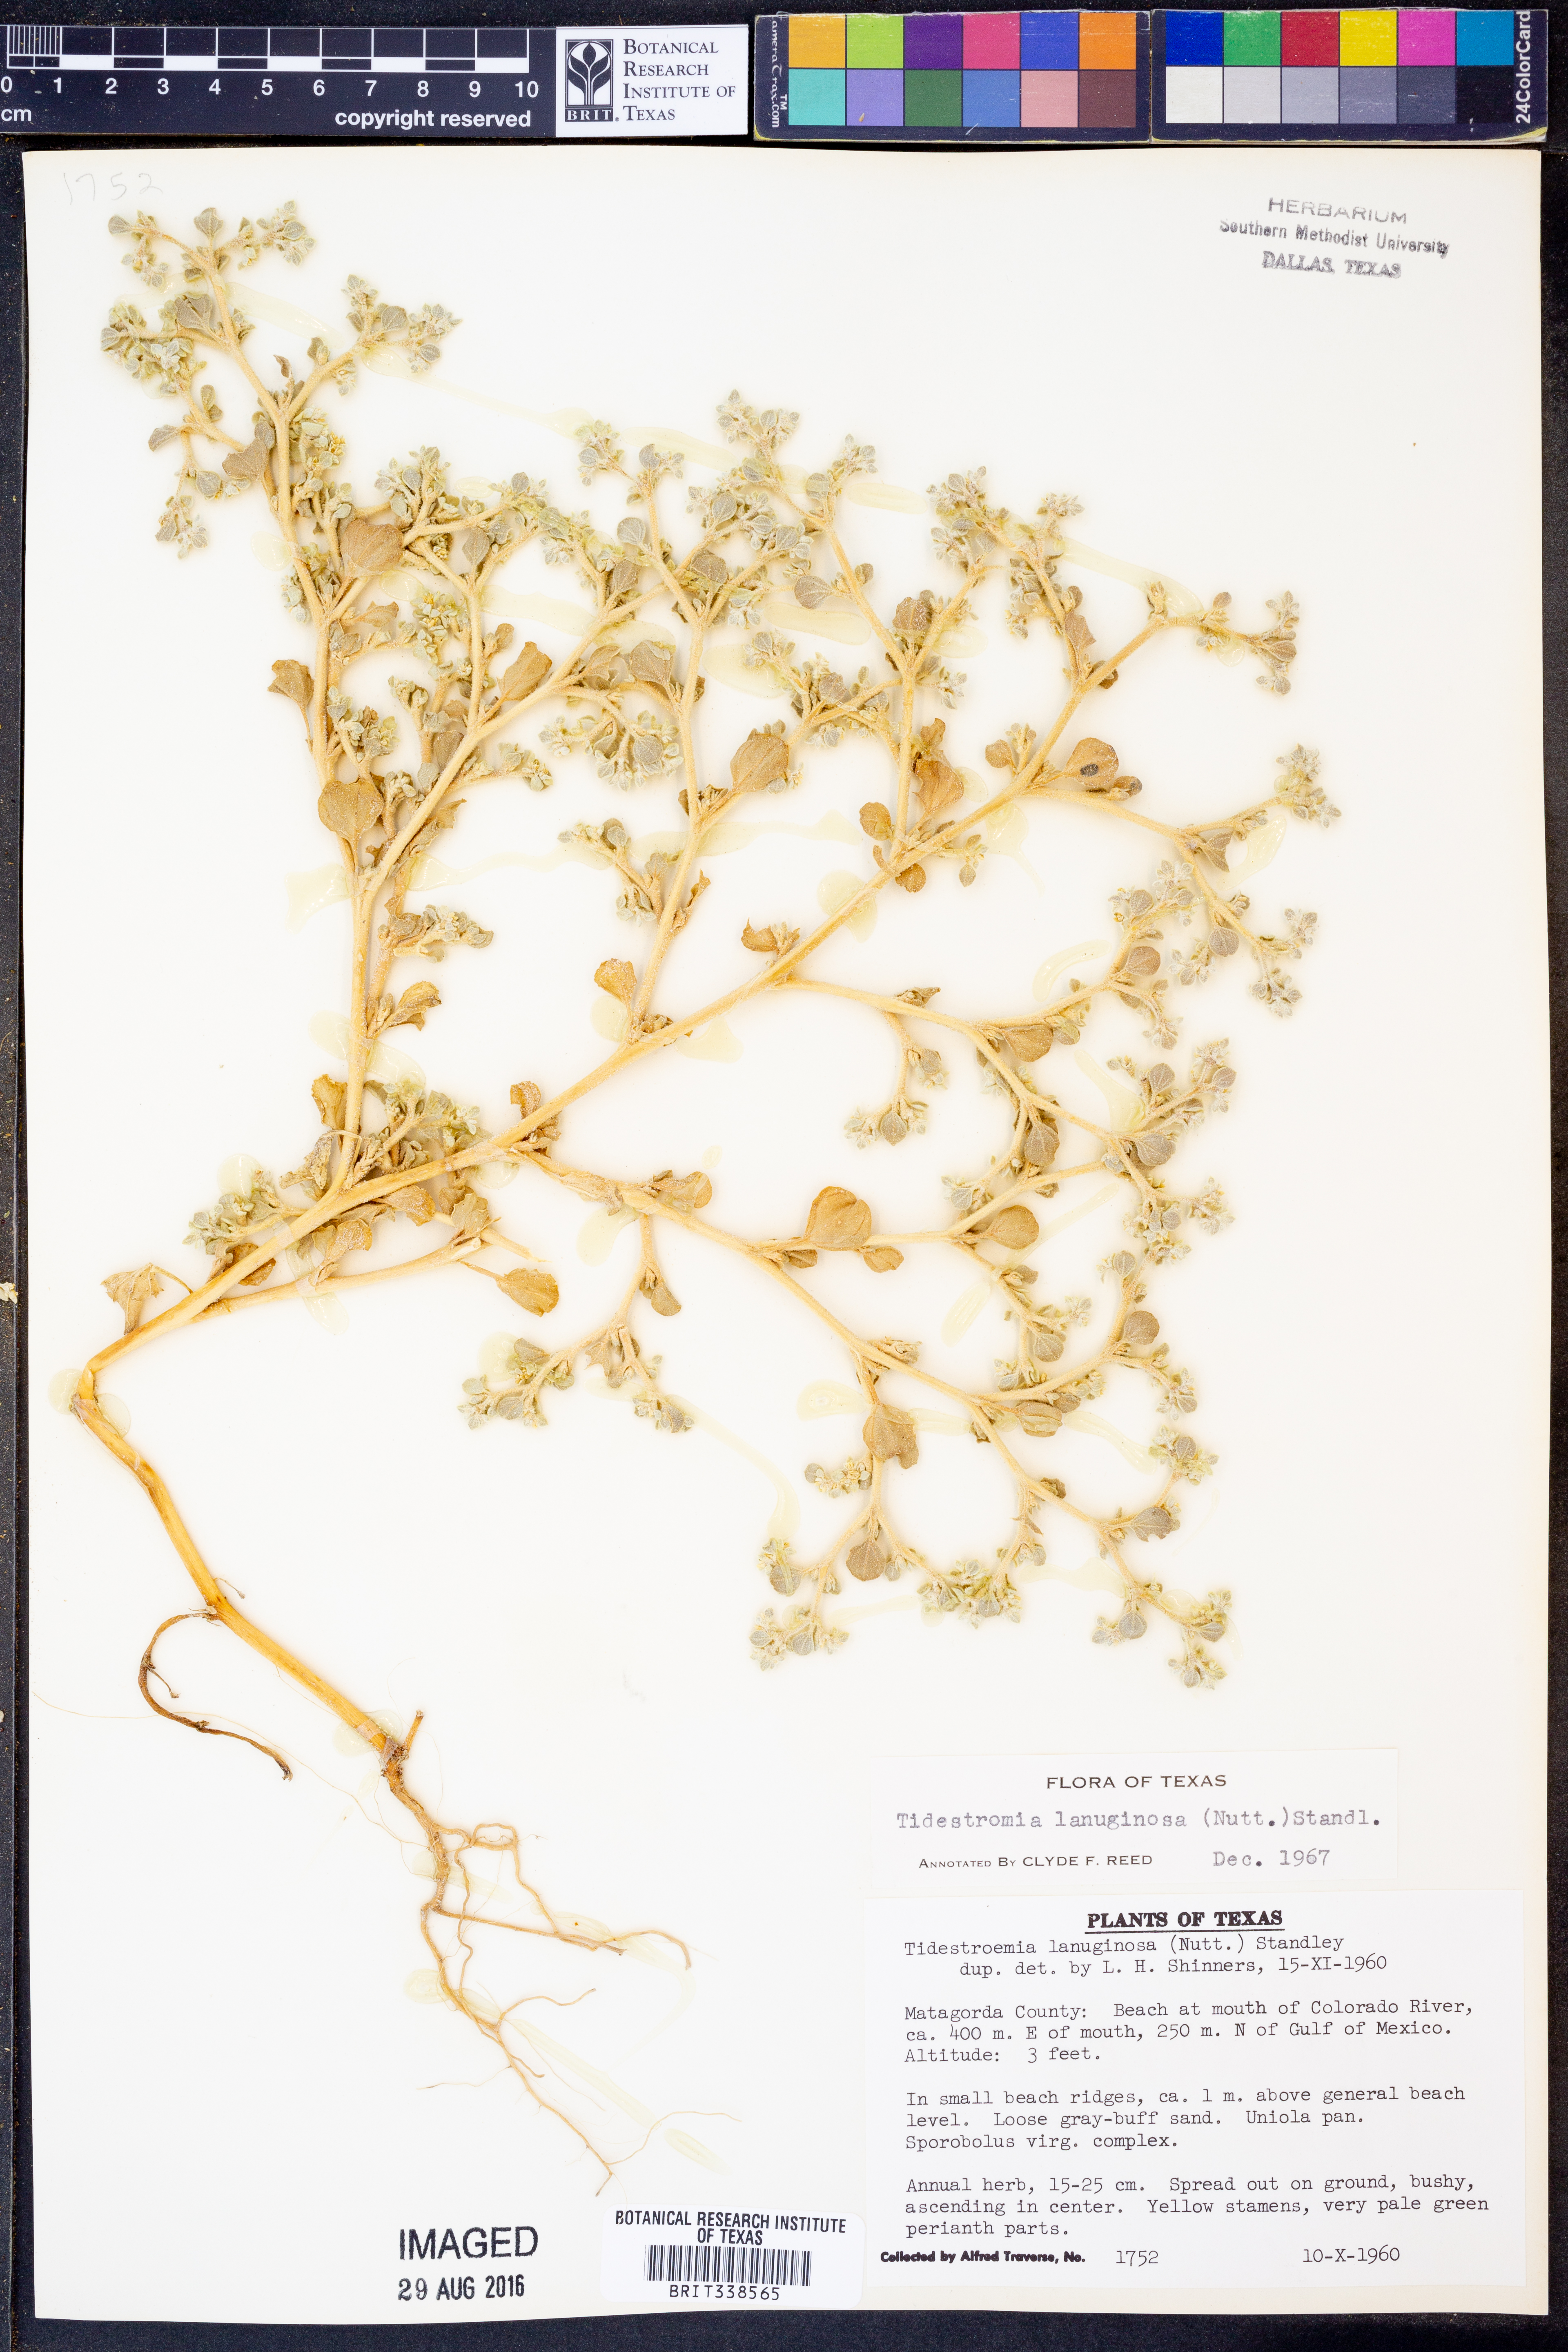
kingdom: Plantae
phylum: Tracheophyta
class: Magnoliopsida
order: Caryophyllales
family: Amaranthaceae
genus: Tidestromia
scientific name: Tidestromia lanuginosa
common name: Woolly tidestromia
